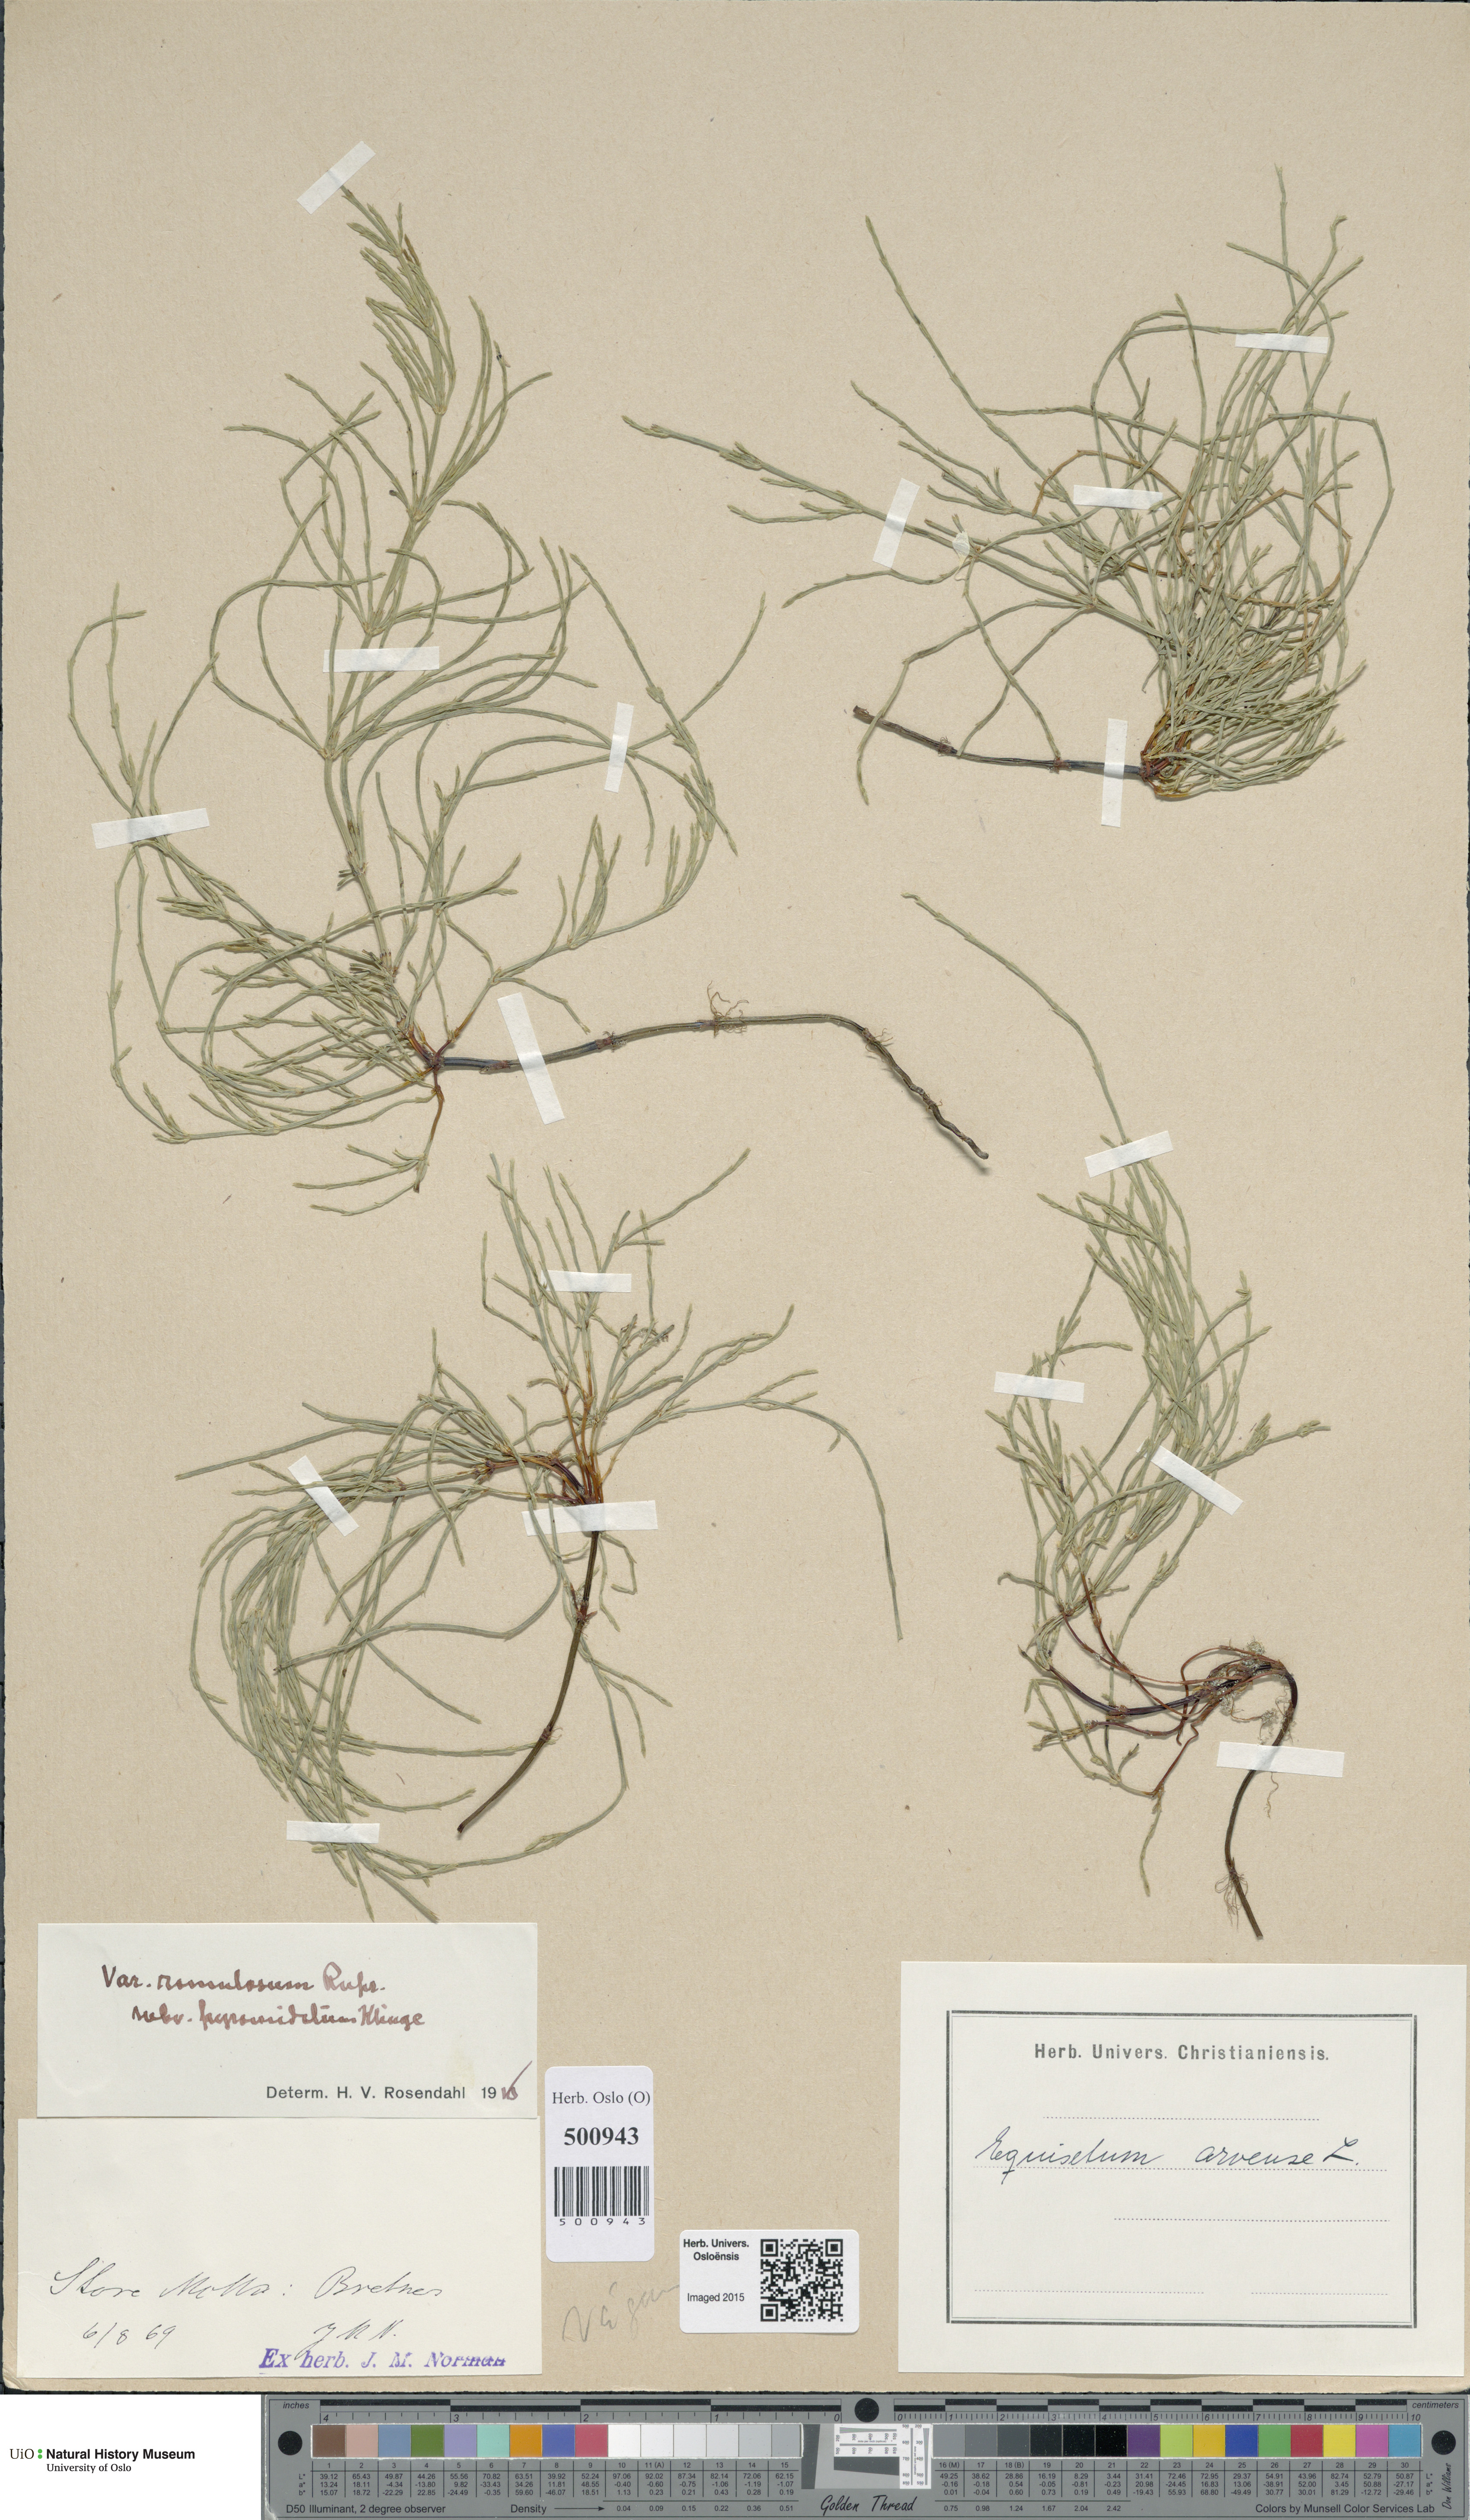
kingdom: Plantae
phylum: Tracheophyta
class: Polypodiopsida
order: Equisetales
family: Equisetaceae
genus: Equisetum
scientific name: Equisetum arvense
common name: Field horsetail
